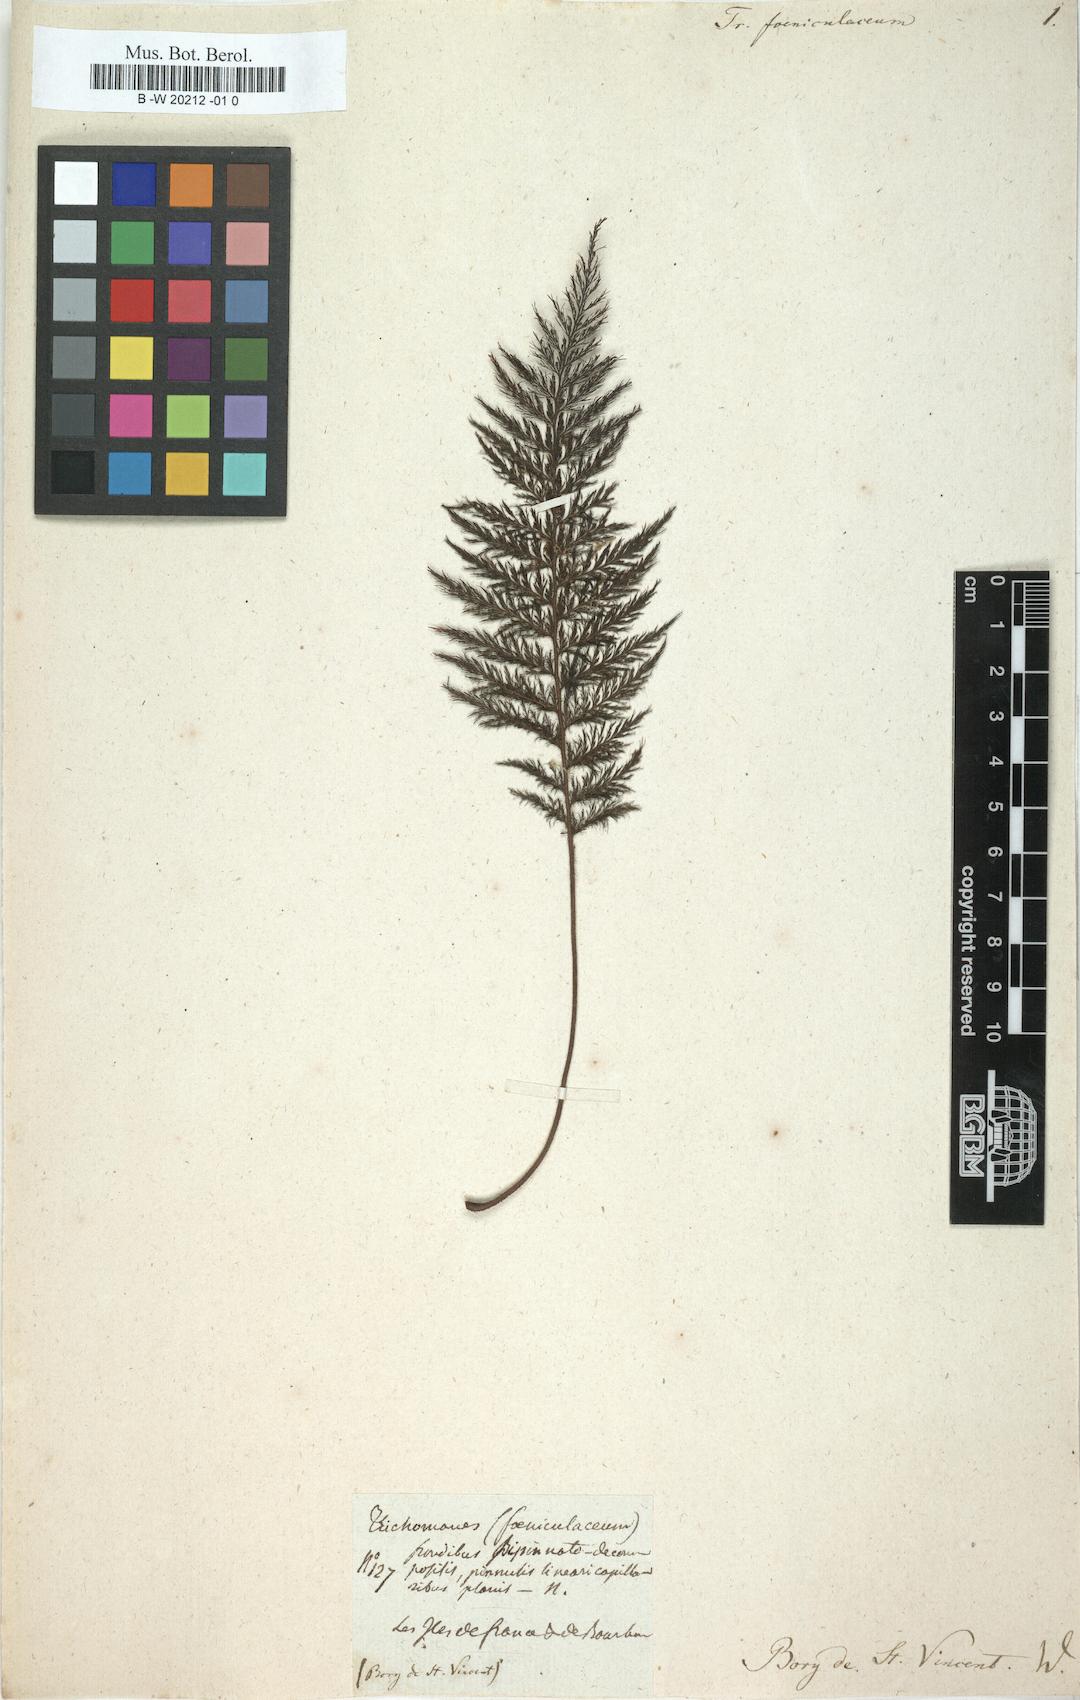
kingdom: Plantae
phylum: Tracheophyta
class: Polypodiopsida
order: Hymenophyllales
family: Hymenophyllaceae
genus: Abrodictyum
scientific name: Abrodictyum
